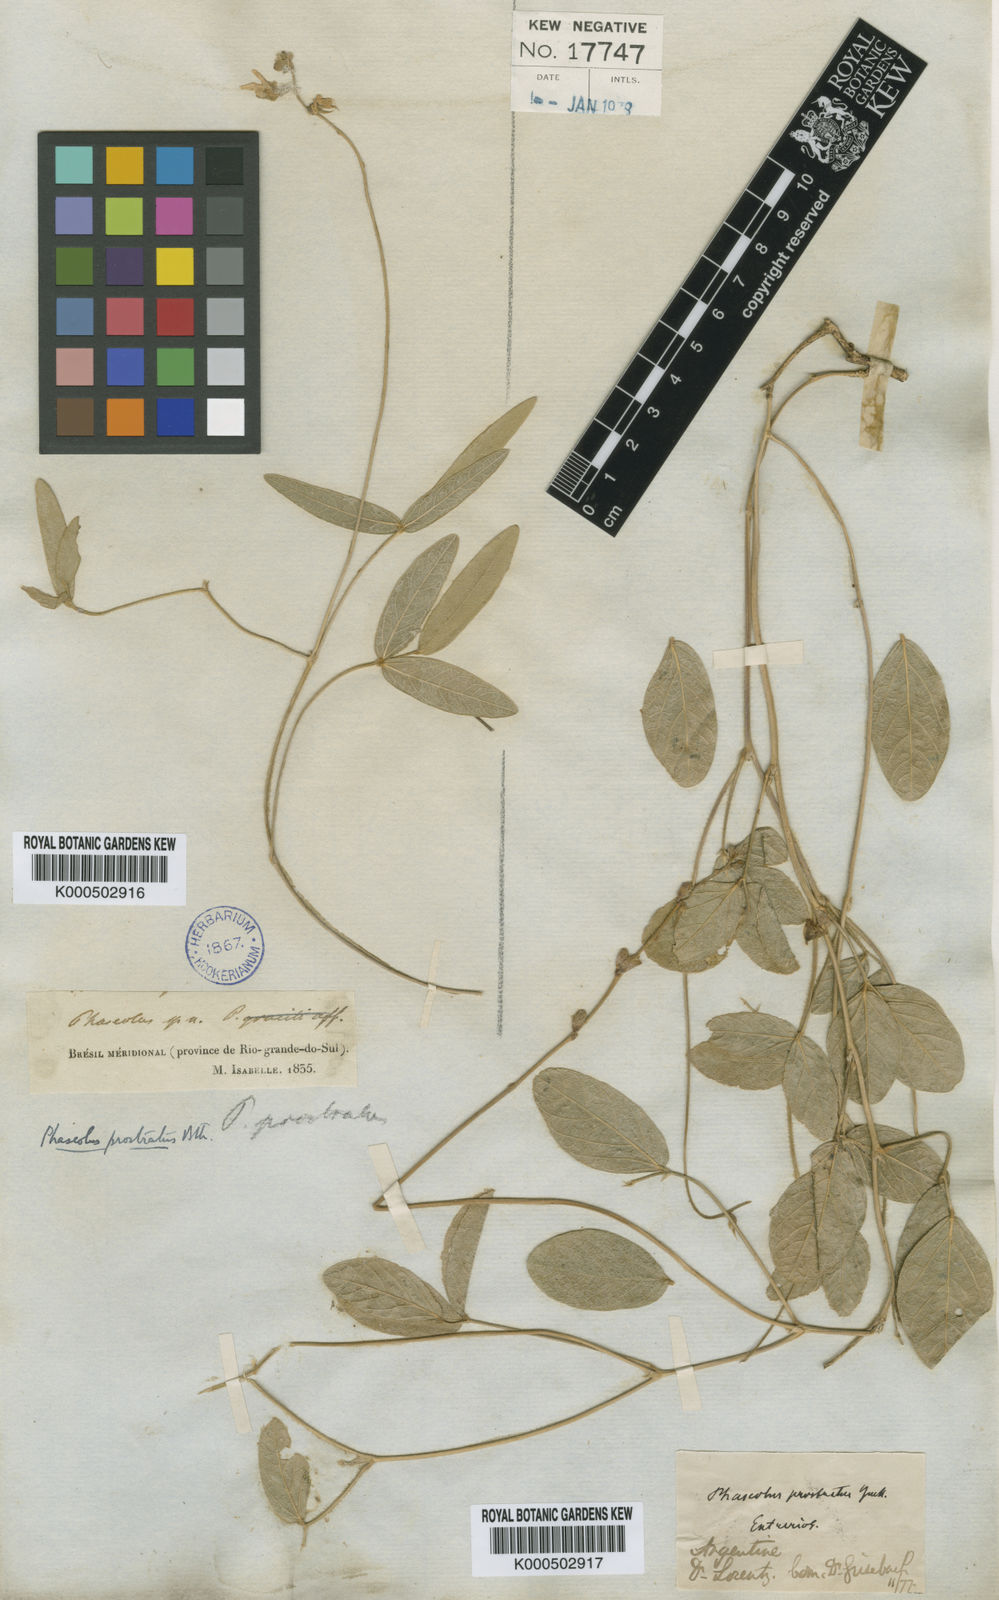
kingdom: Plantae
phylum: Tracheophyta
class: Magnoliopsida
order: Fabales
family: Fabaceae
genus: Macroptilium
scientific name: Macroptilium prostratum
